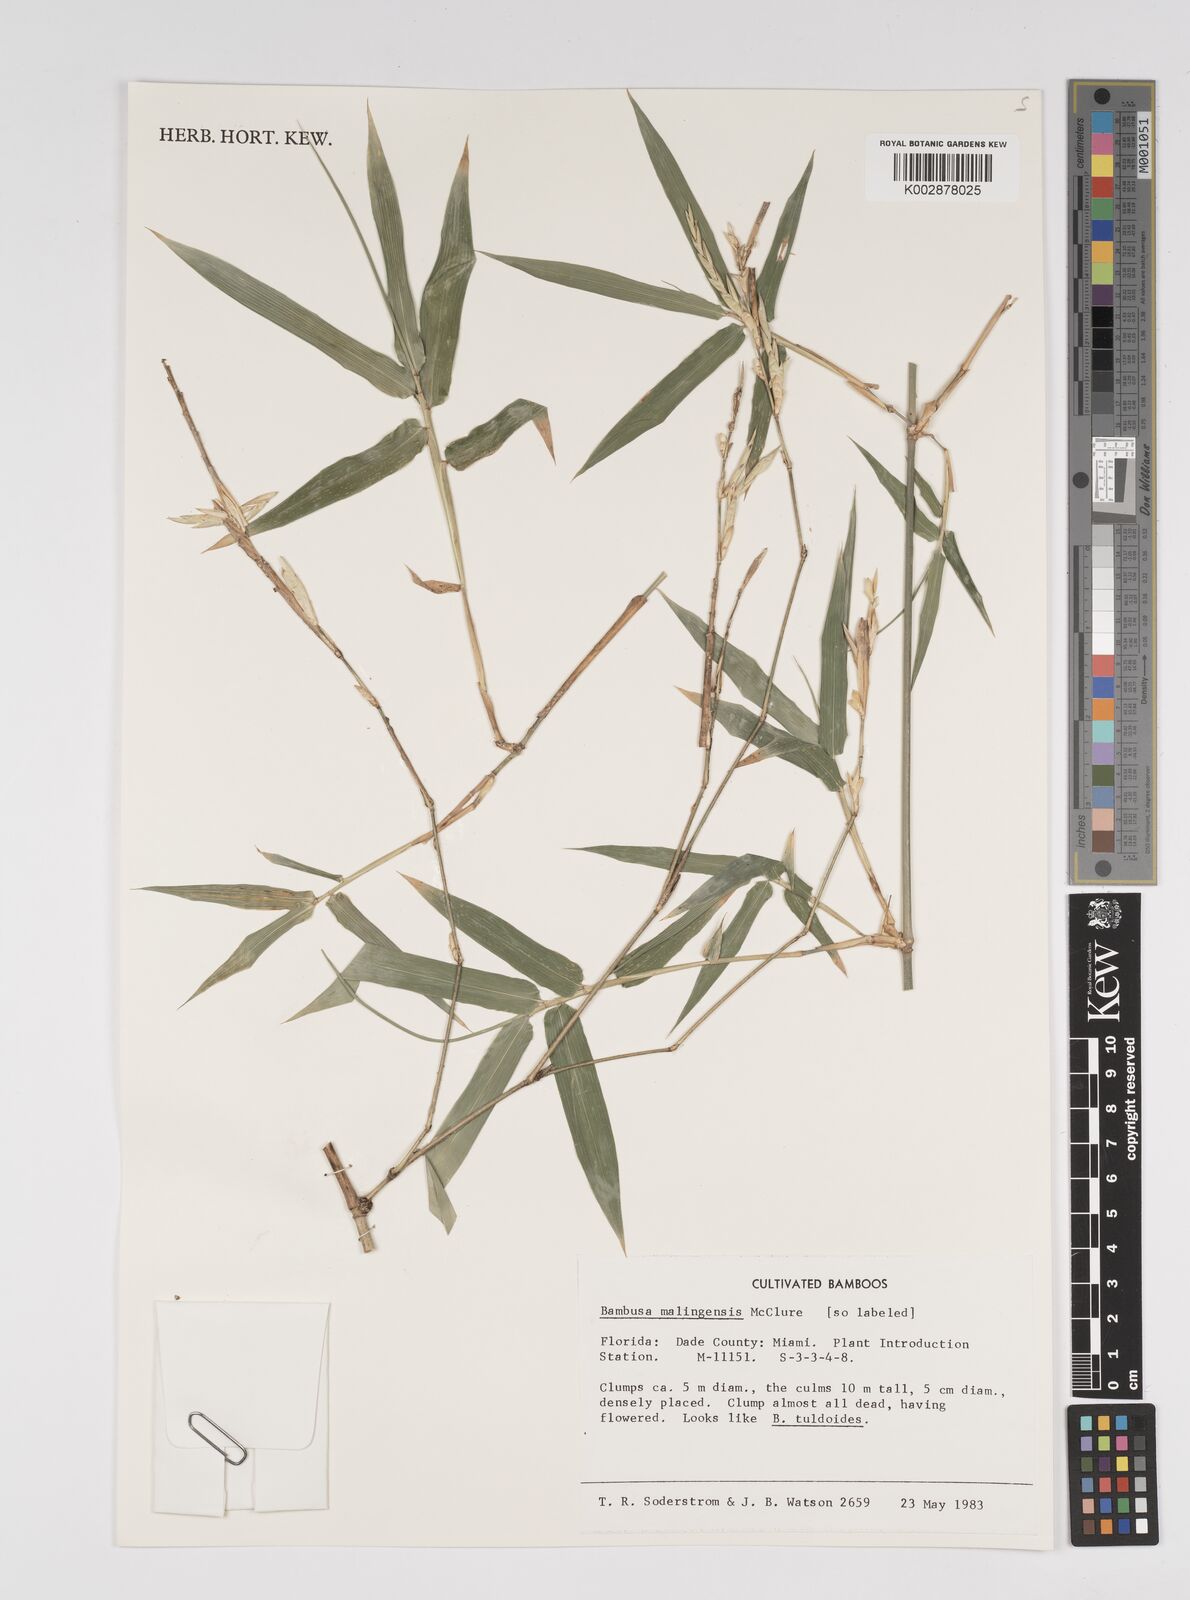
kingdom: Plantae
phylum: Tracheophyta
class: Liliopsida
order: Poales
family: Poaceae
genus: Bambusa
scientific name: Bambusa malingensis
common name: Maling bamboo
